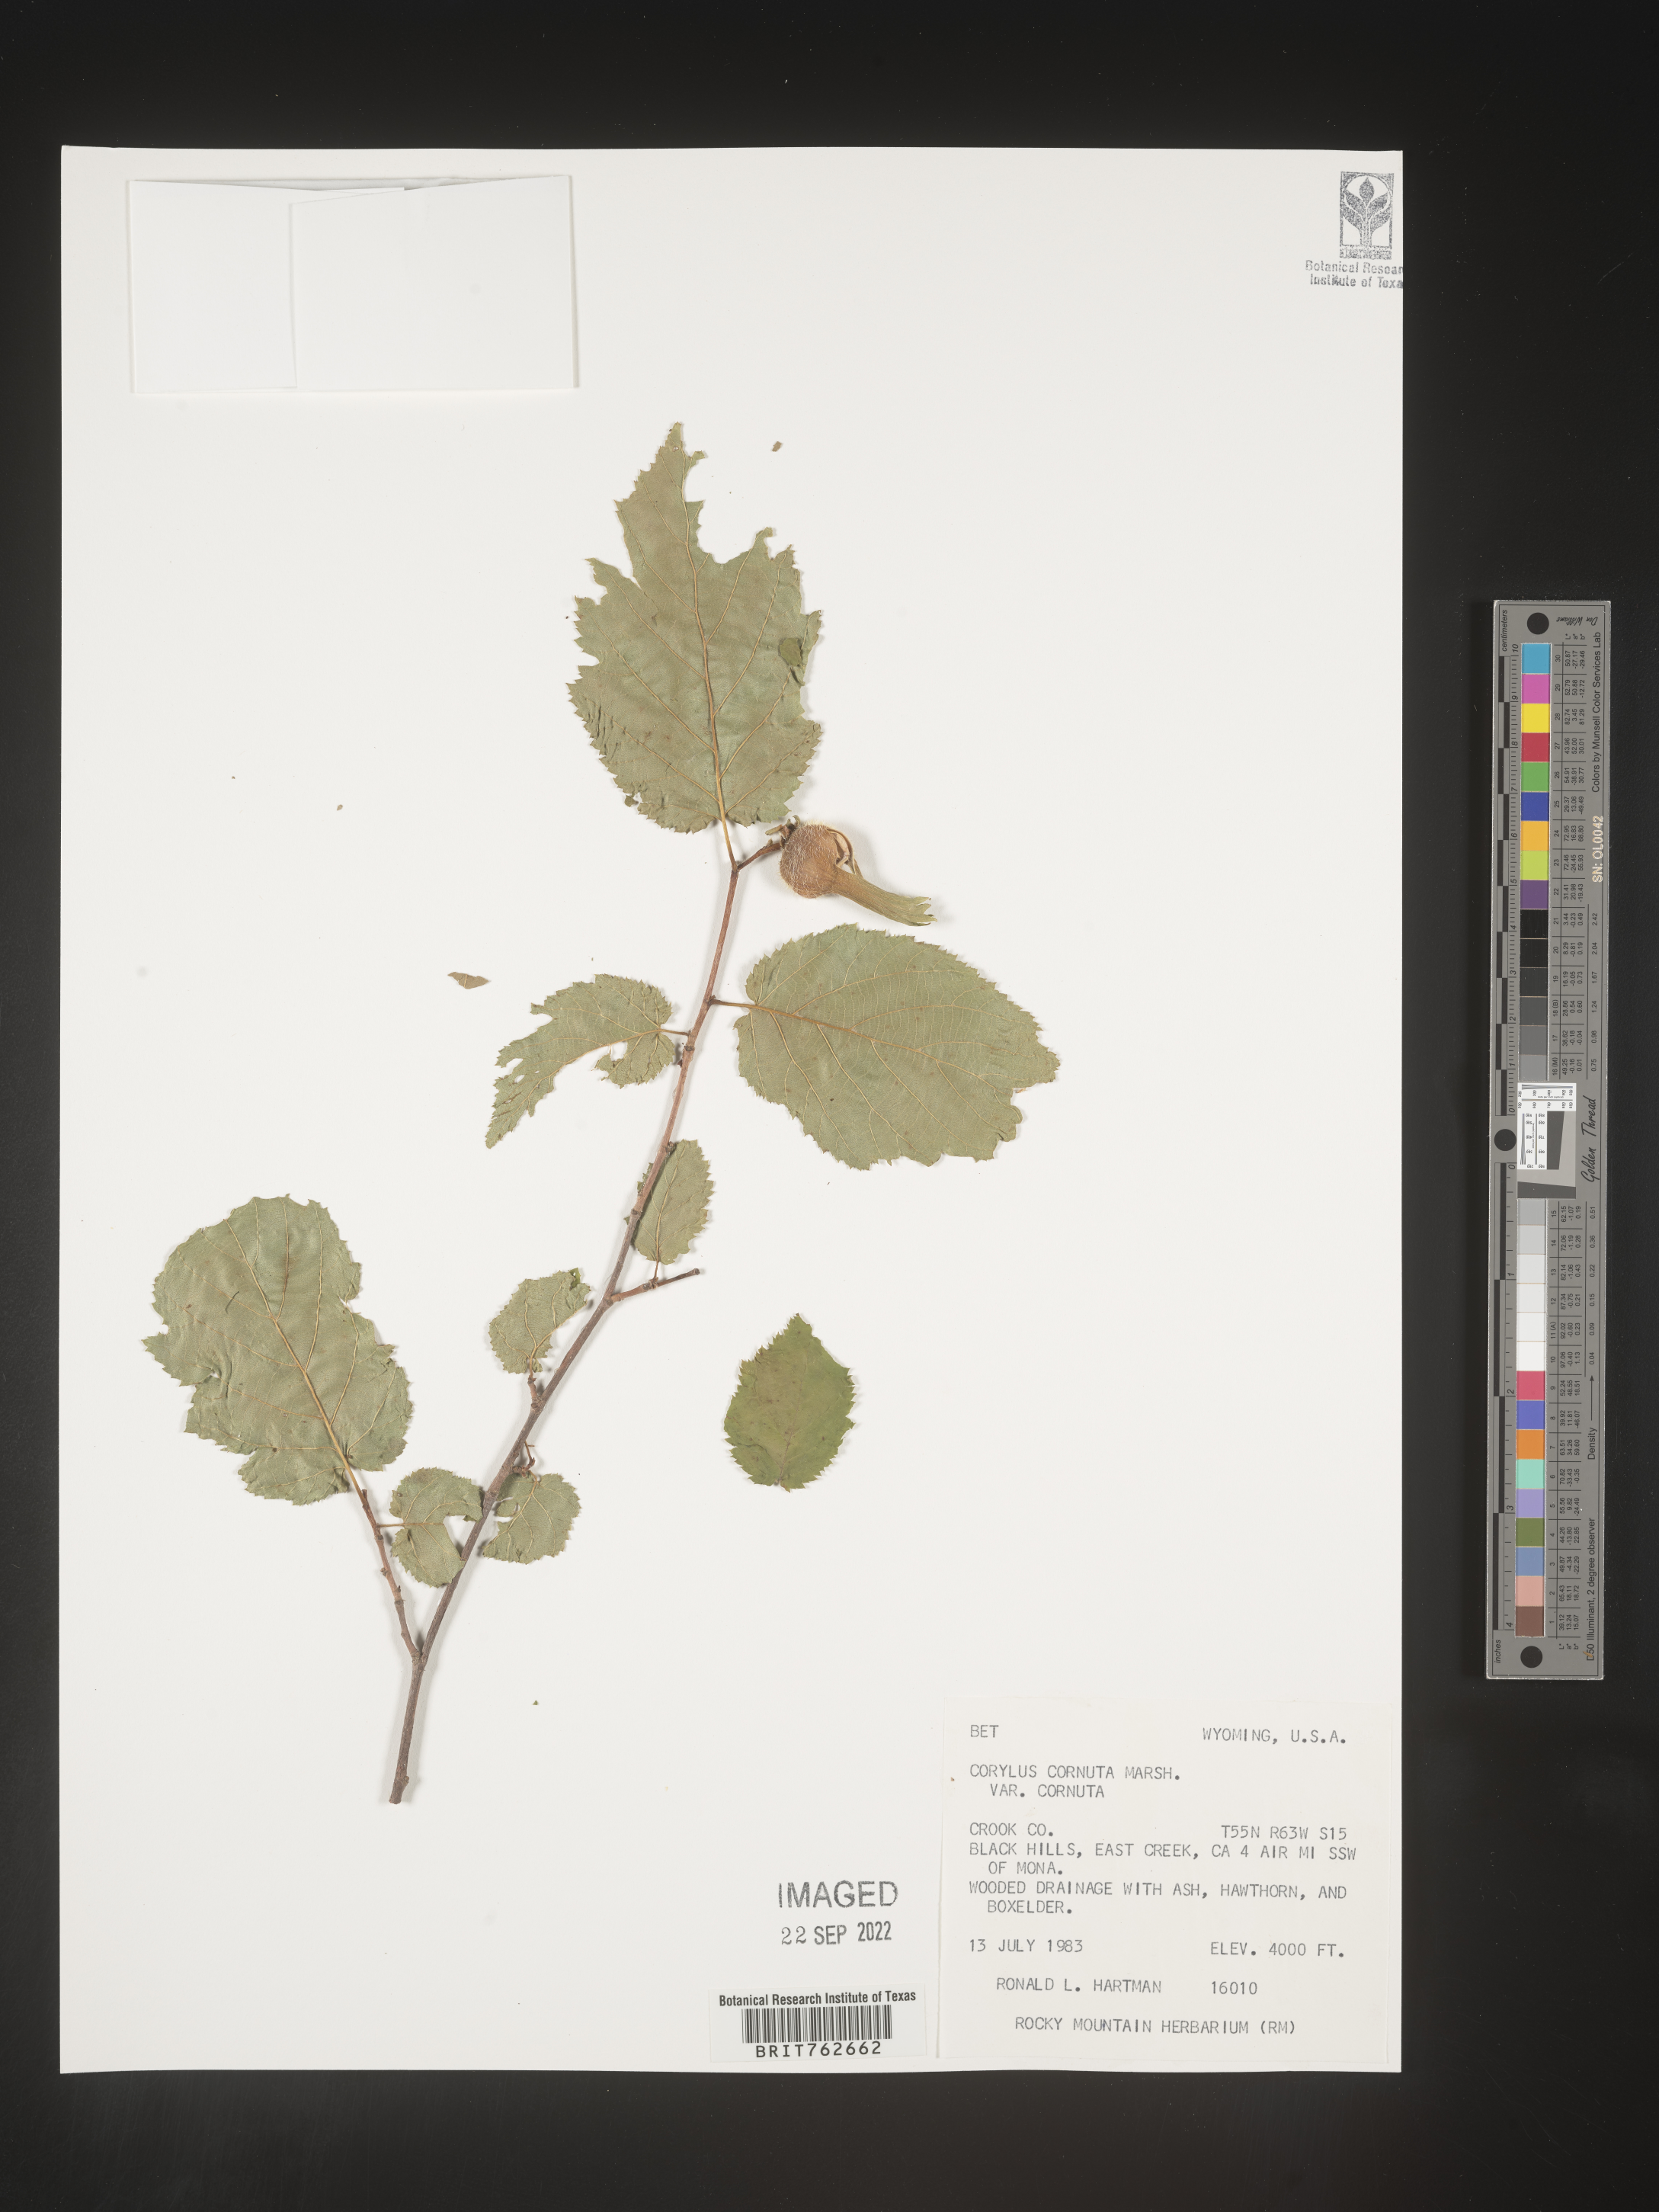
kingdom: Plantae
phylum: Tracheophyta
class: Magnoliopsida
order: Fagales
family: Betulaceae
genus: Corylus
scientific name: Corylus cornuta
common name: Beaked hazel
